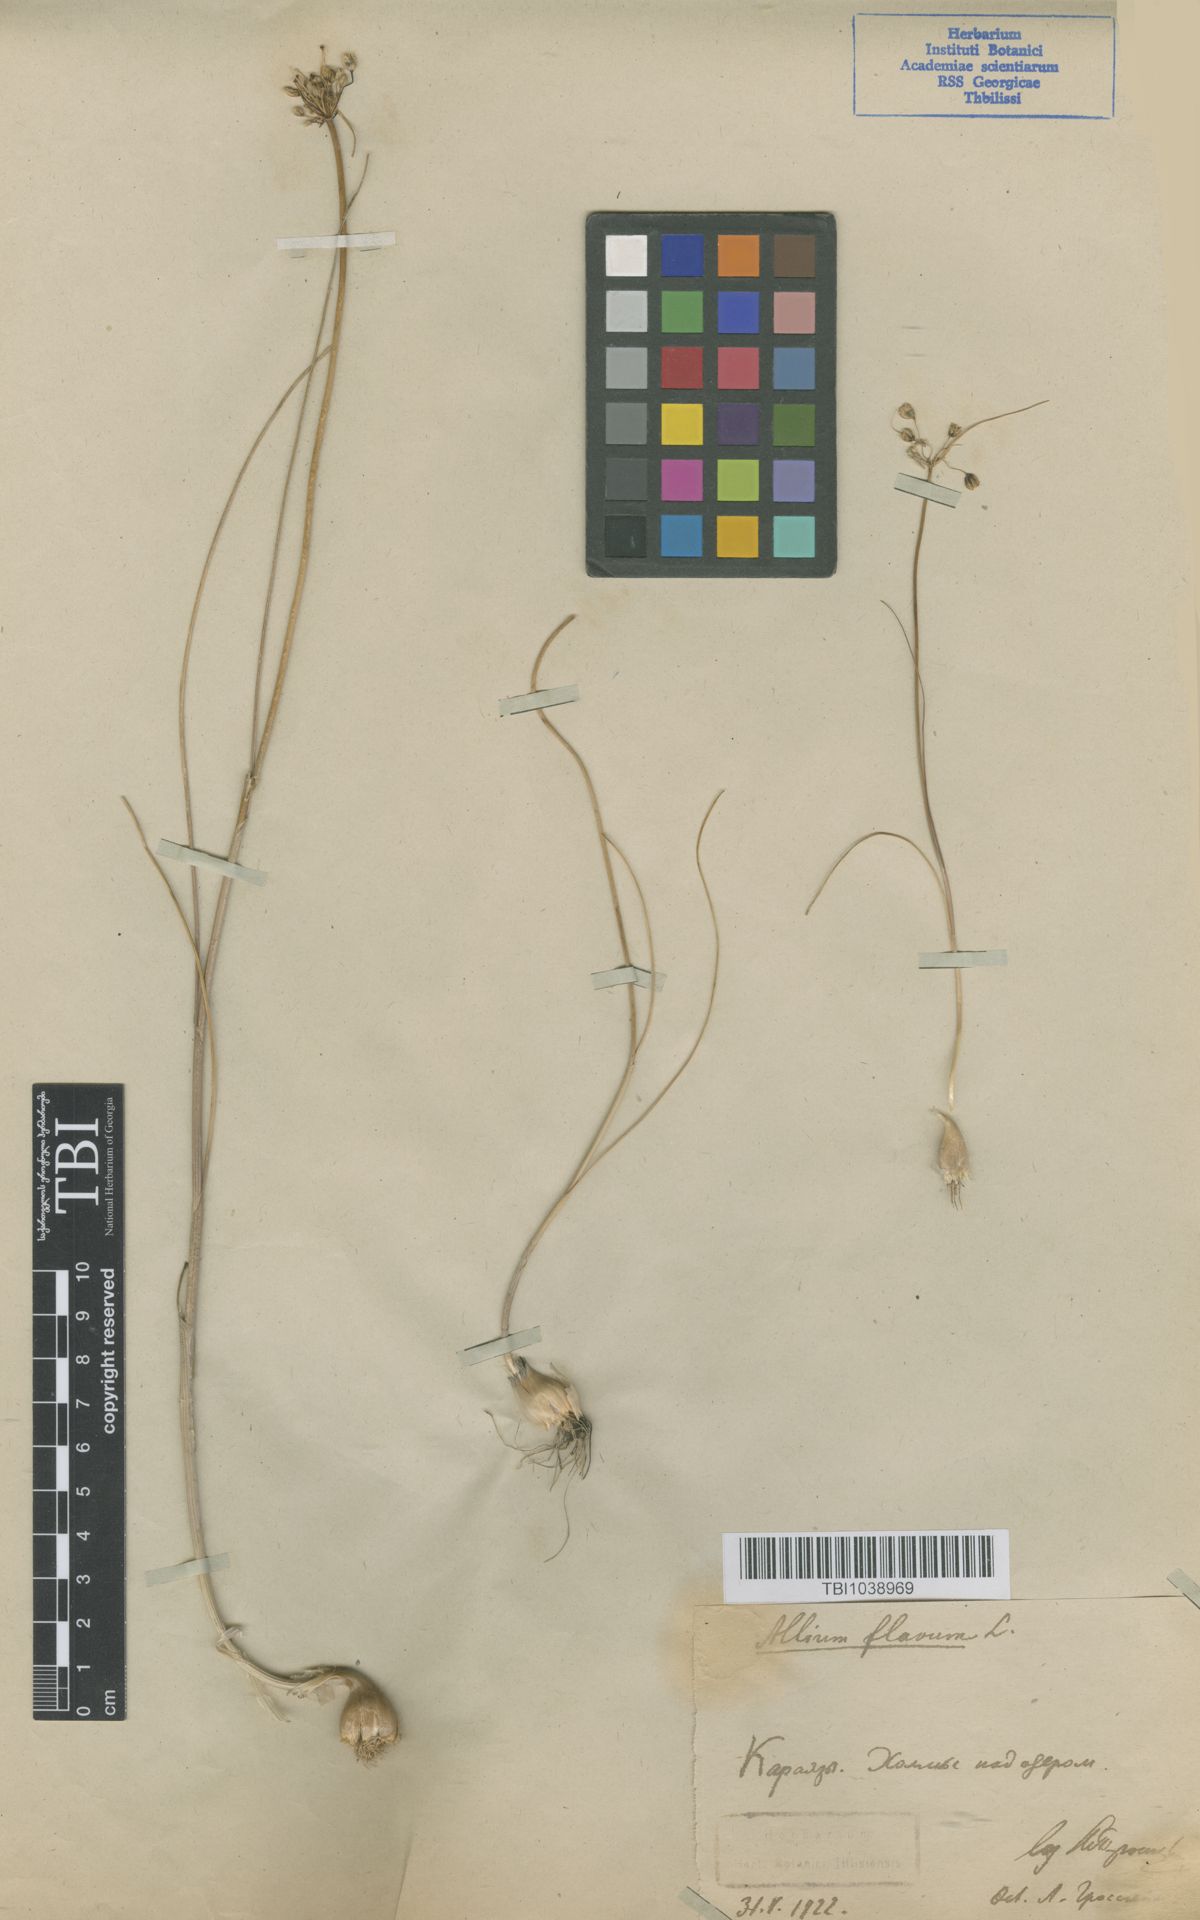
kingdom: Plantae
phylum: Tracheophyta
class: Liliopsida
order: Asparagales
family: Amaryllidaceae
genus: Allium
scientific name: Allium pseudoflavum
